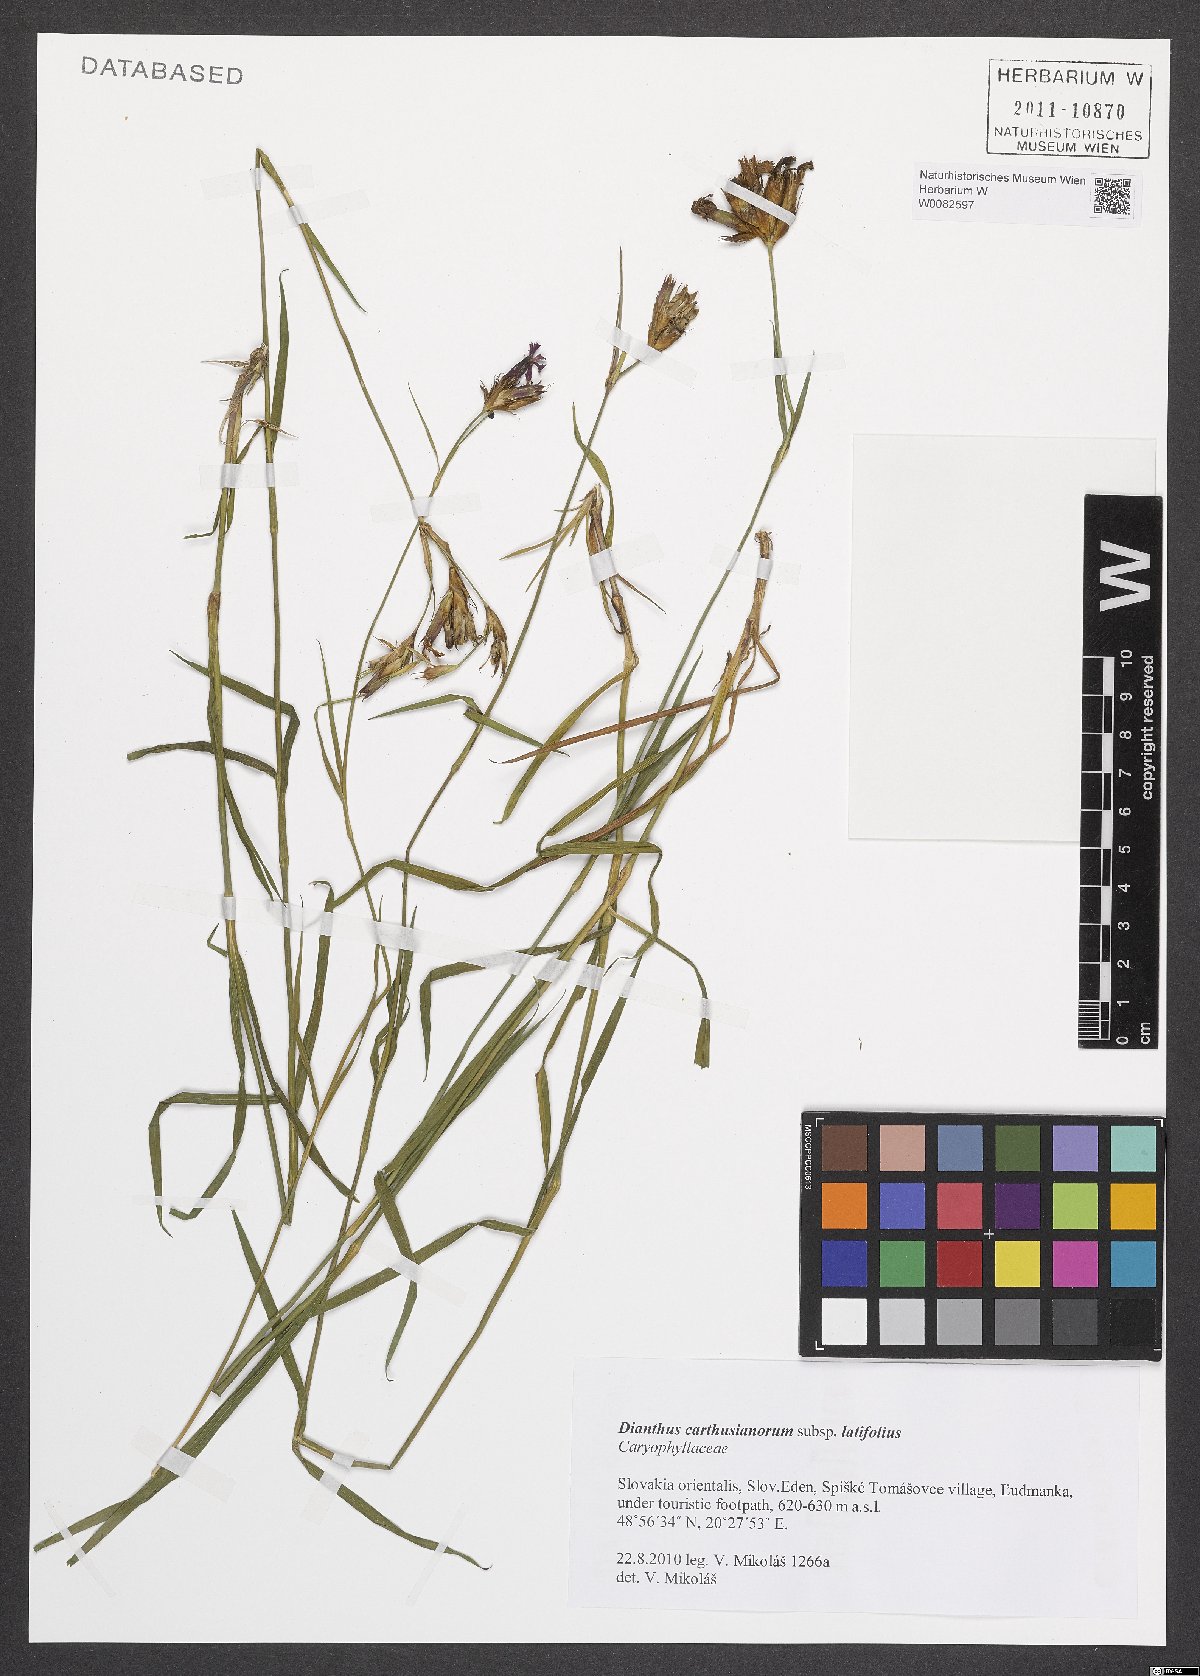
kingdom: Plantae
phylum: Tracheophyta
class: Magnoliopsida
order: Caryophyllales
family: Caryophyllaceae
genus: Dianthus
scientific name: Dianthus carthusianorum
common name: Carthusian pink
